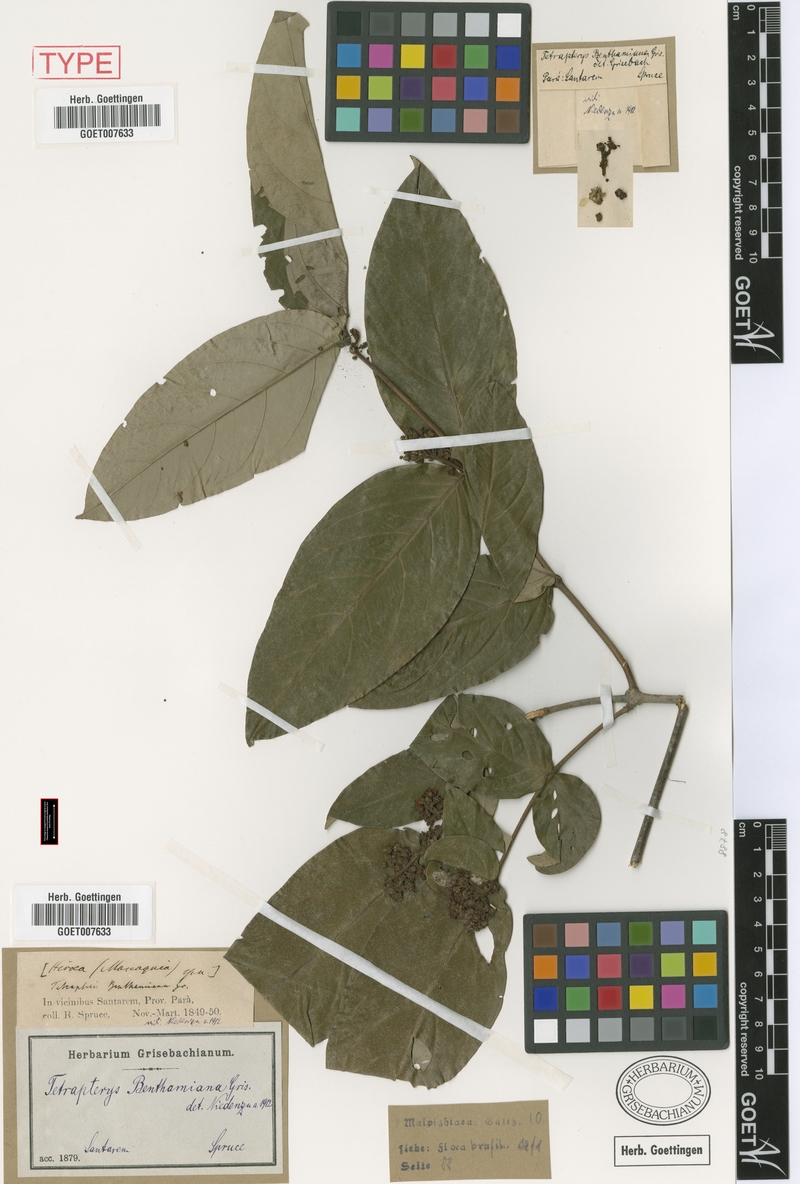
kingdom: Plantae
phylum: Tracheophyta
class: Magnoliopsida
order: Malpighiales
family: Malpighiaceae
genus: Niedenzuella
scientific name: Niedenzuella stannea
